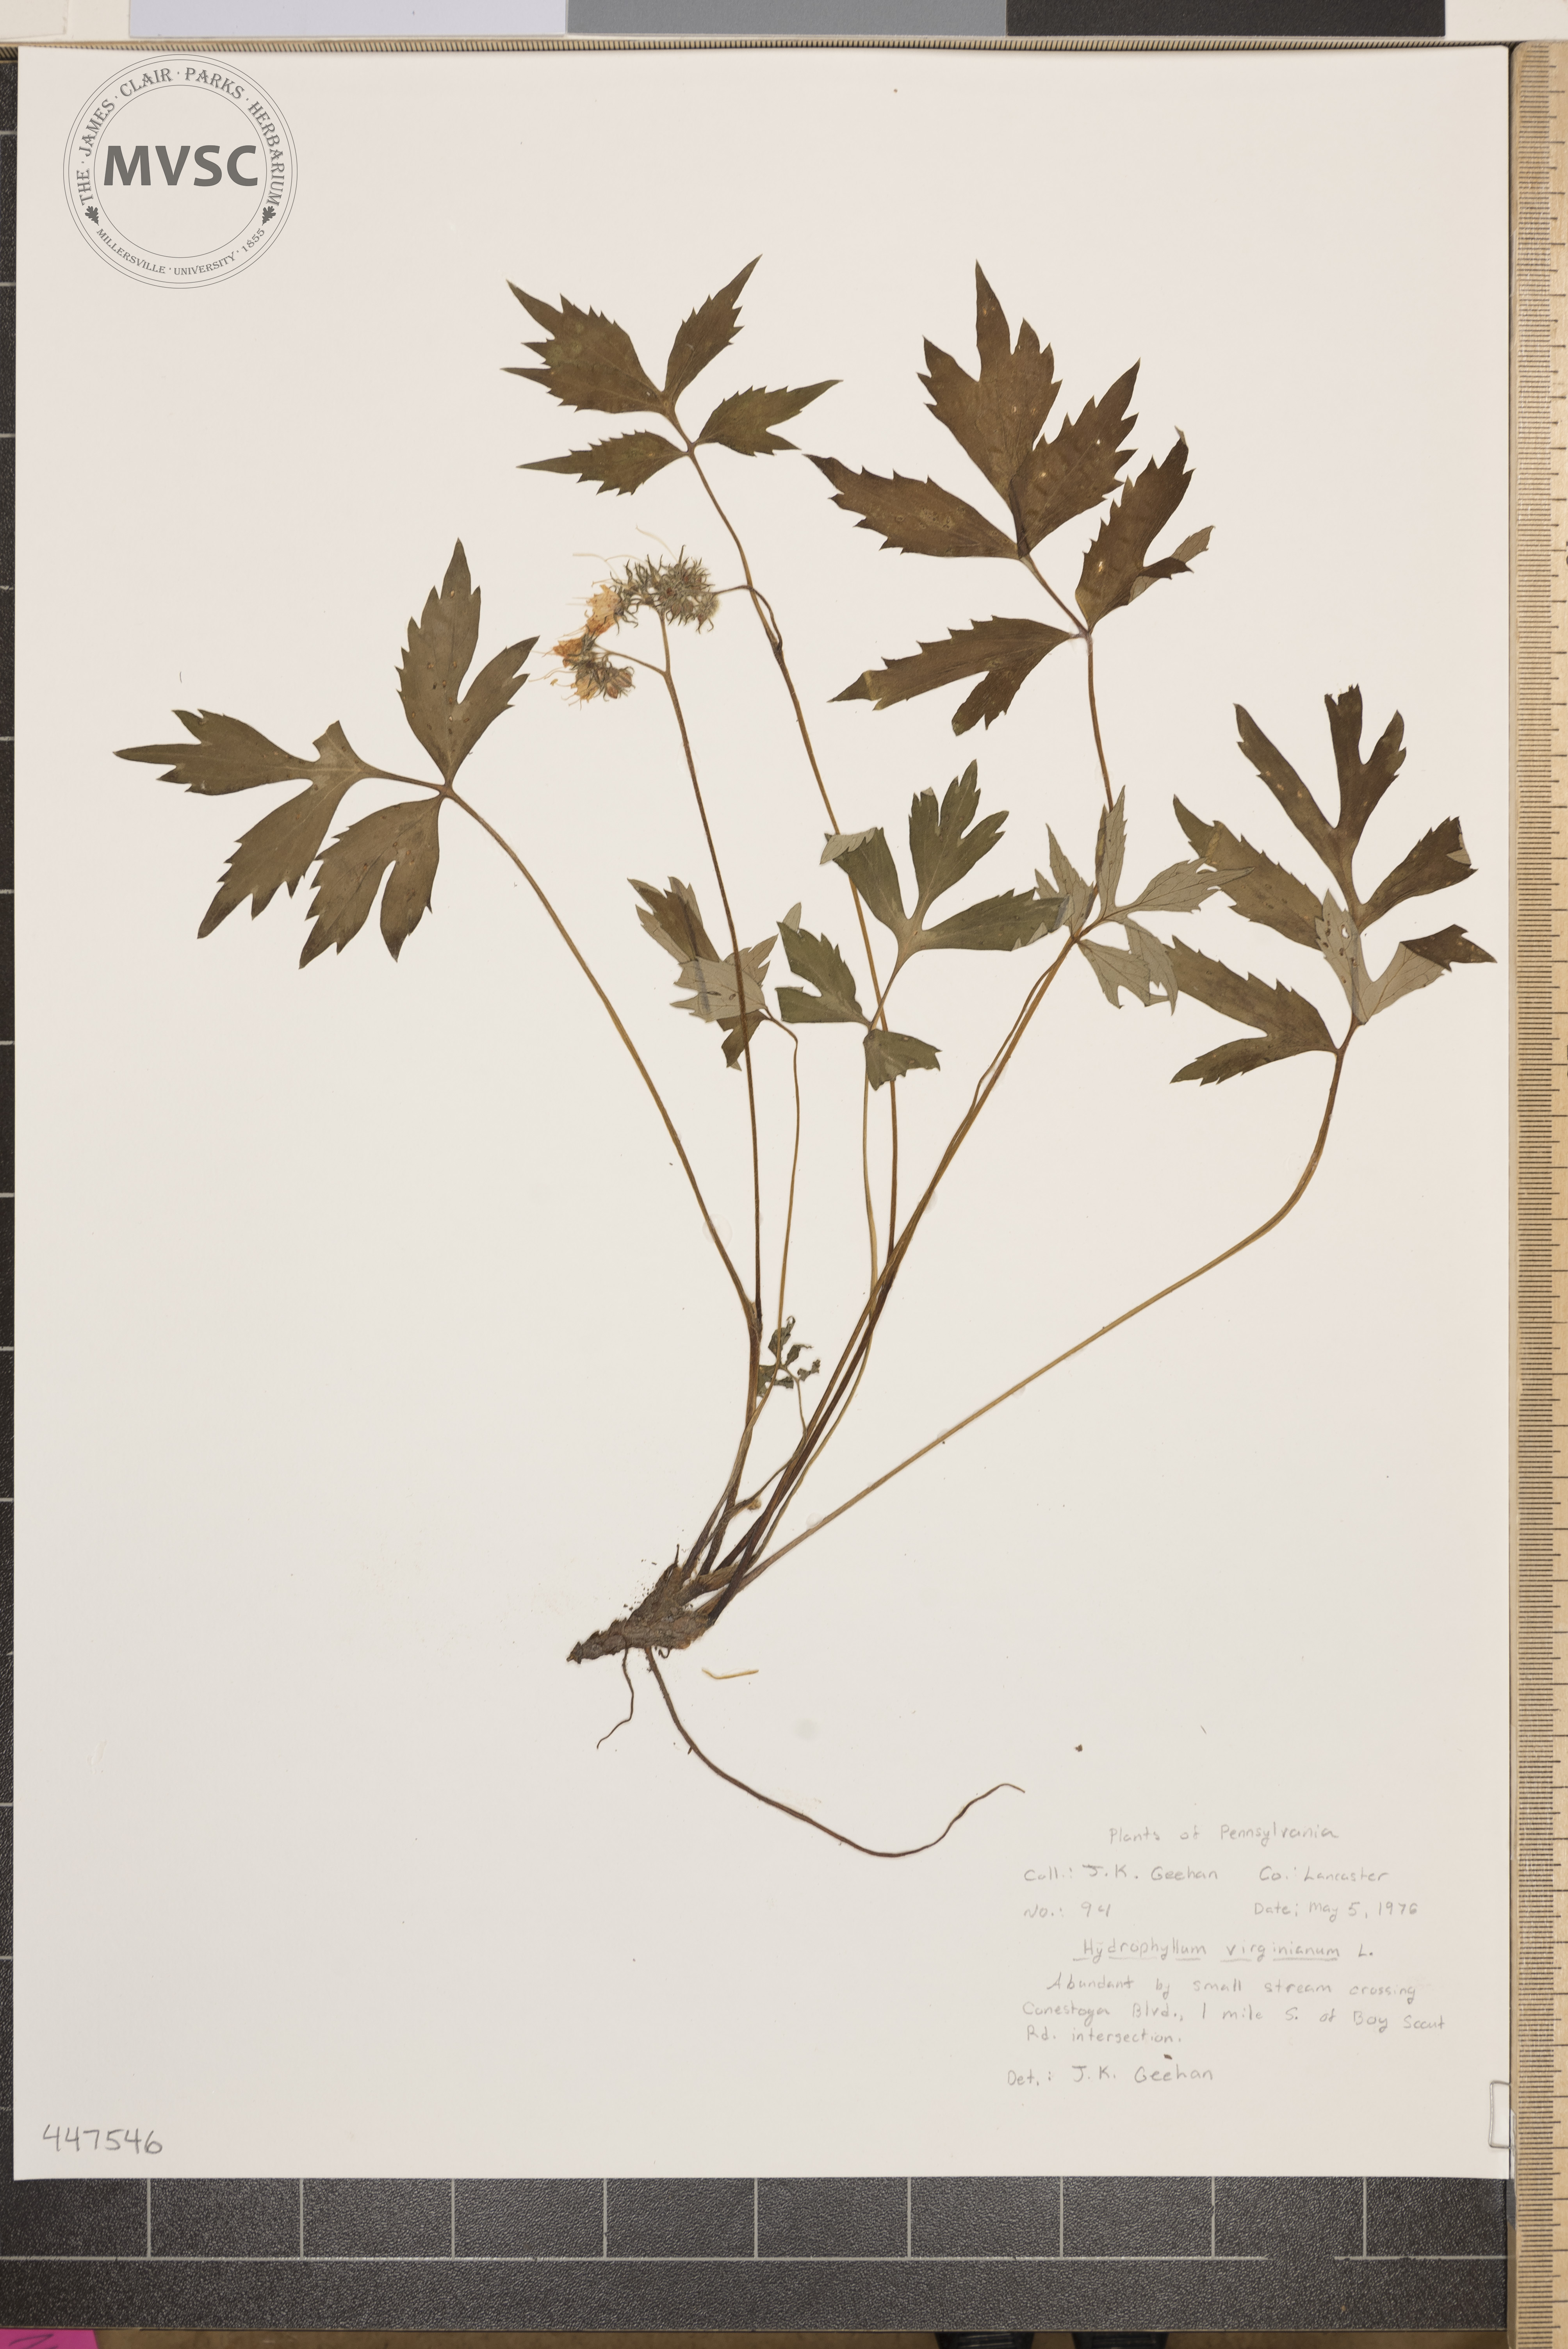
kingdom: Plantae
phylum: Tracheophyta
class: Magnoliopsida
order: Boraginales
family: Hydrophyllaceae
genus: Hydrophyllum
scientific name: Hydrophyllum virginianum
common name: Virginia waterleaf
